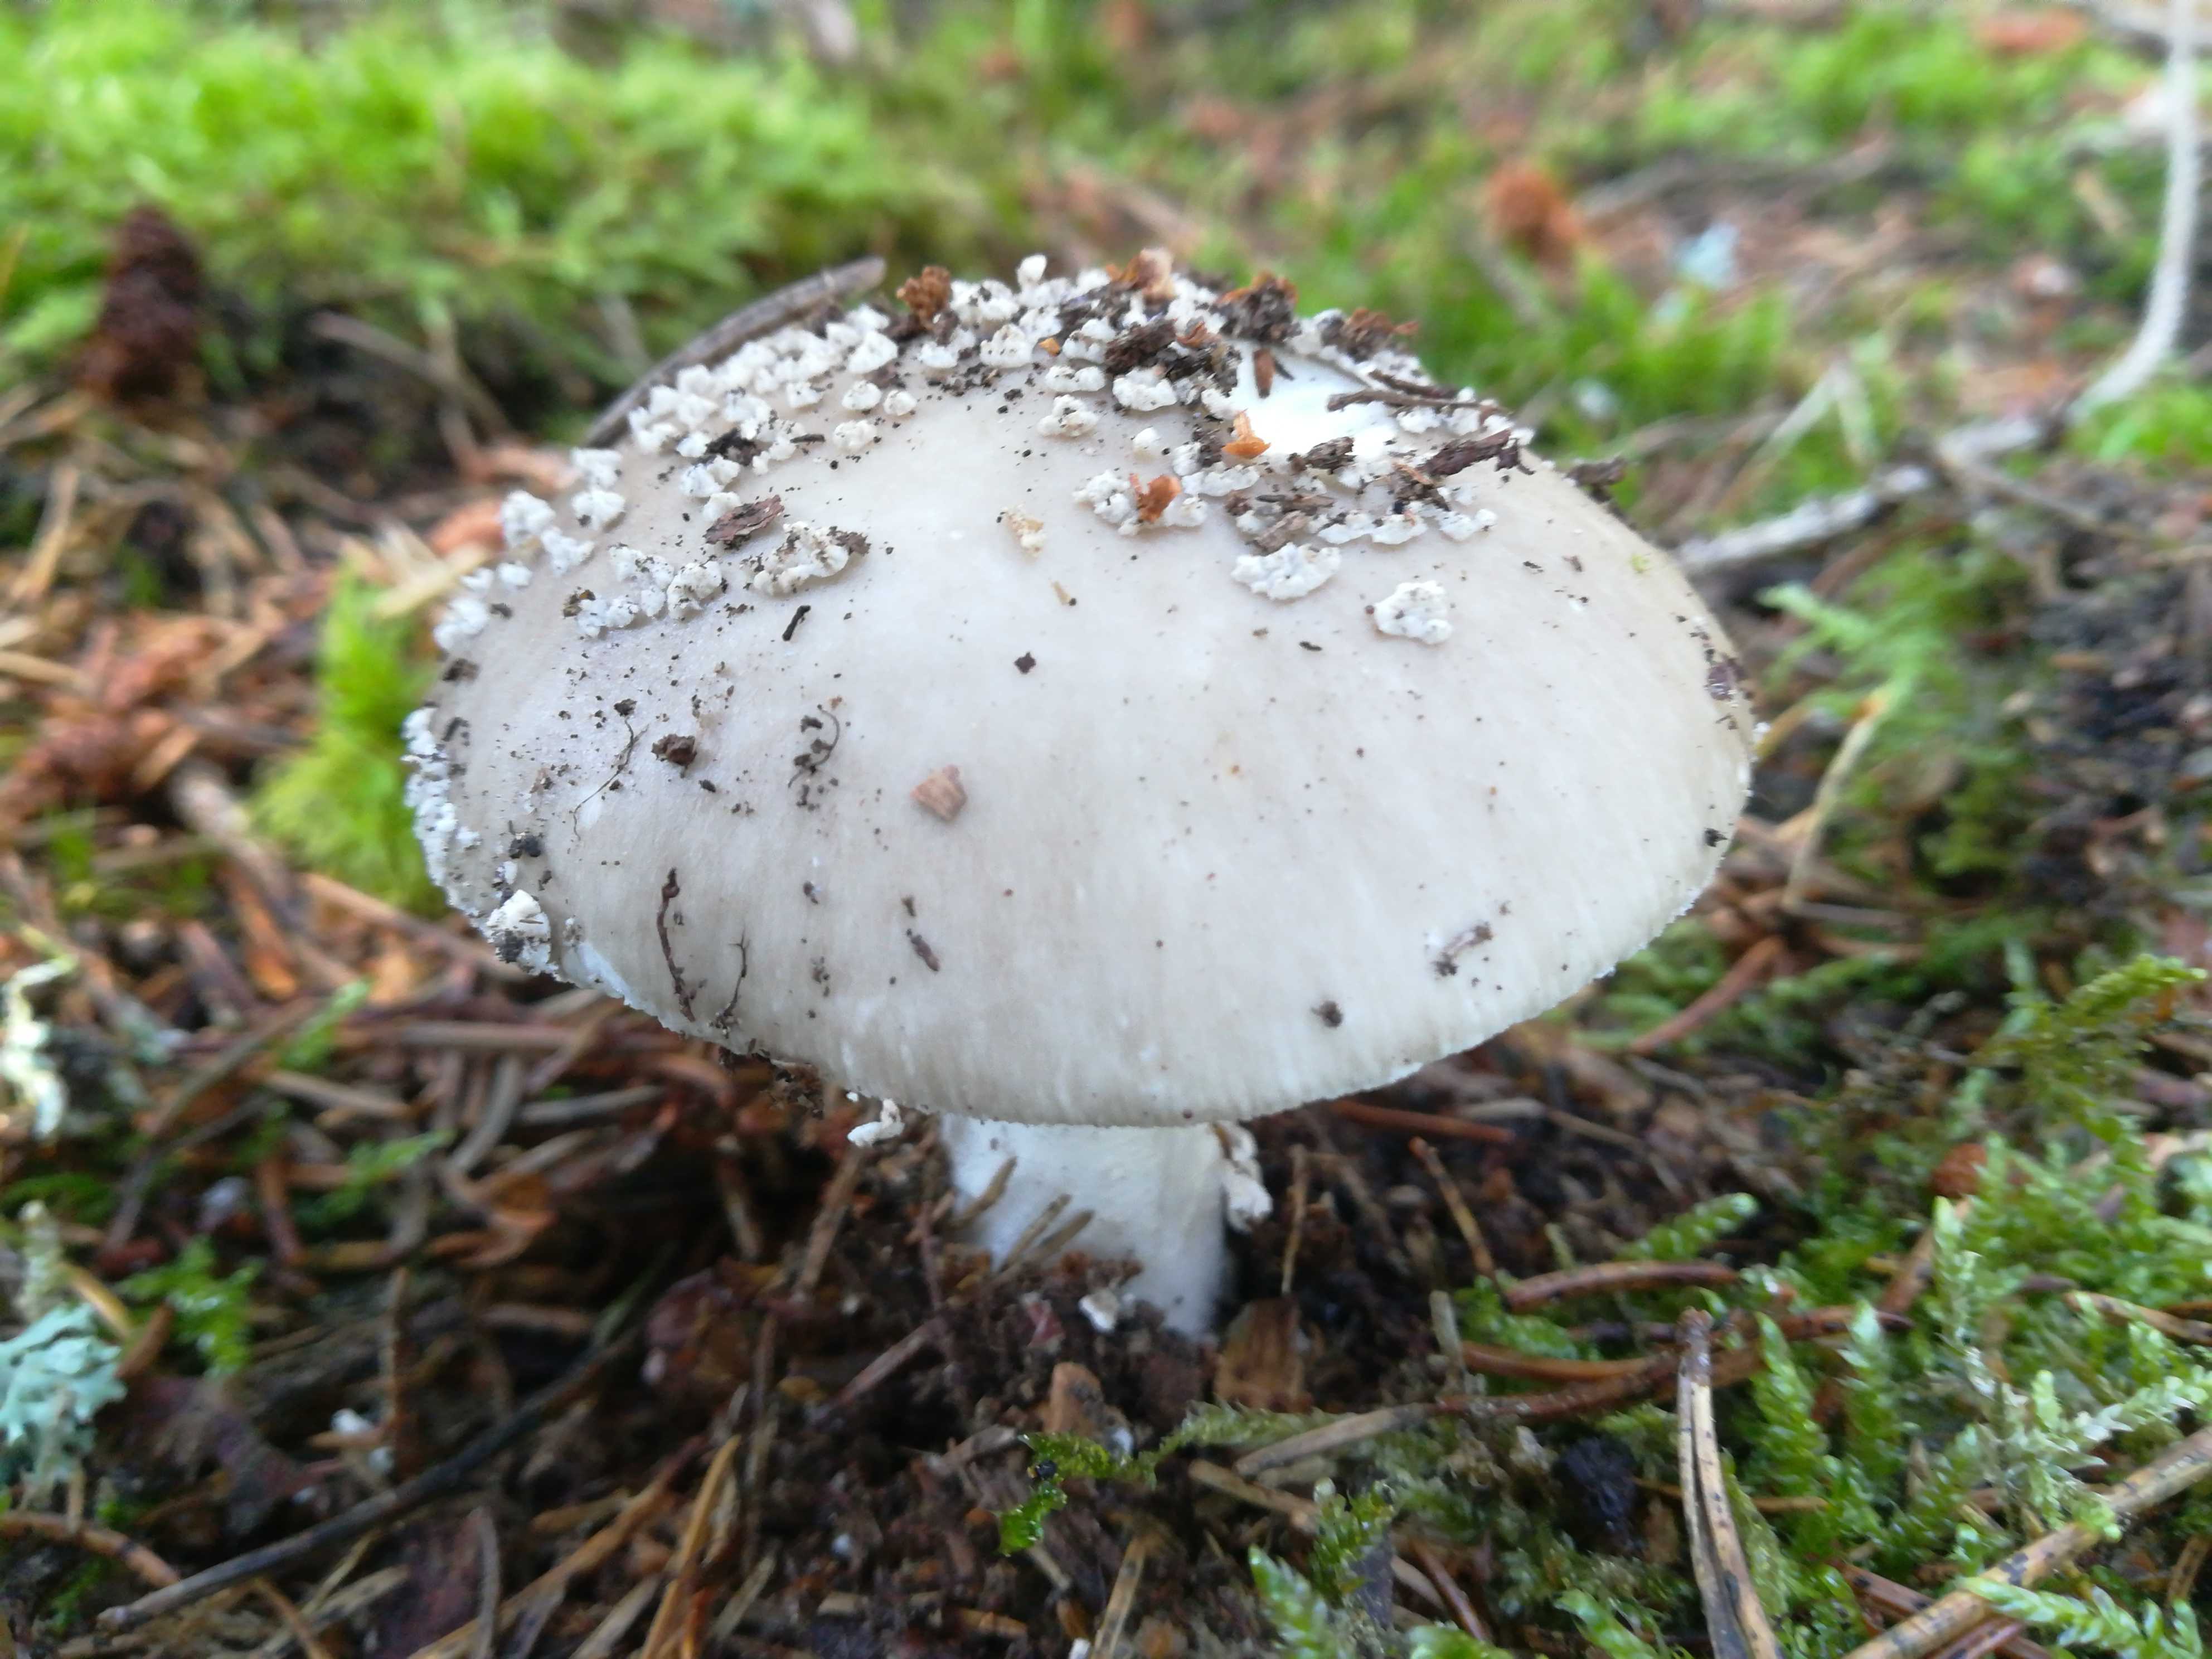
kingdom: Fungi
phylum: Basidiomycota
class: Agaricomycetes
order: Agaricales
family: Amanitaceae
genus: Amanita
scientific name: Amanita
